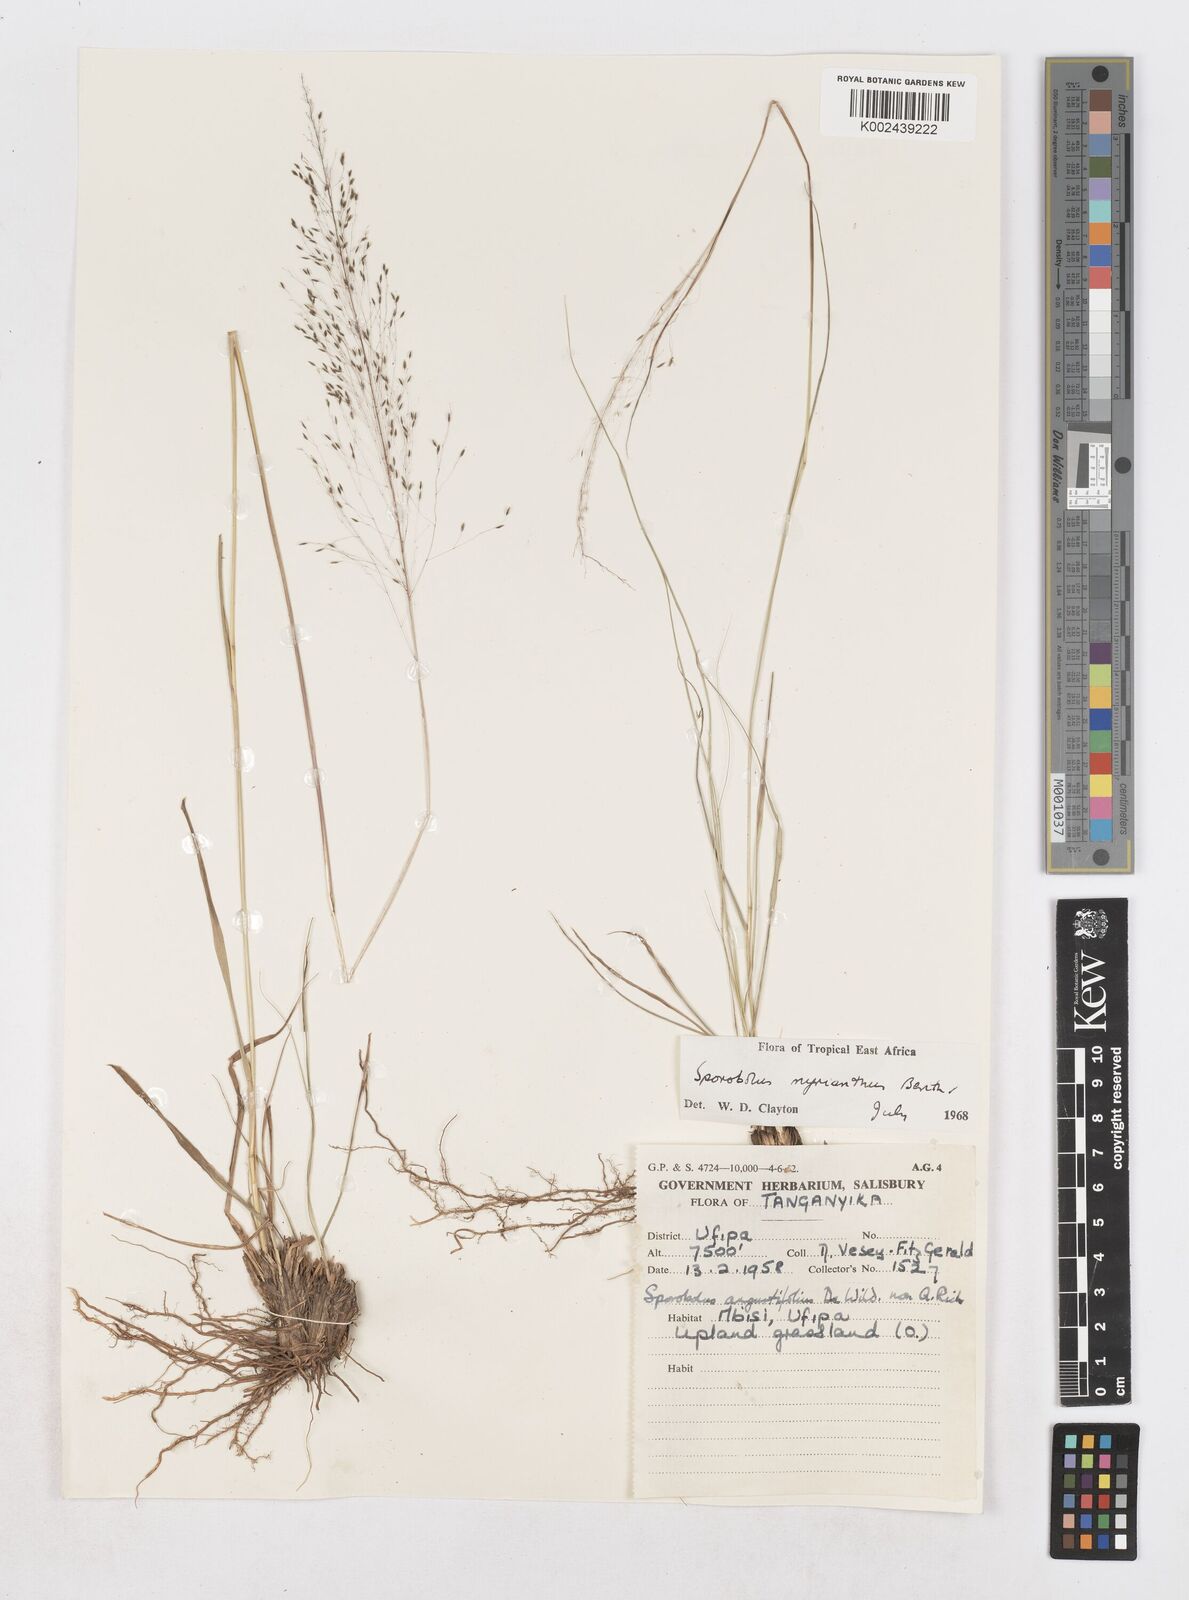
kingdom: Plantae
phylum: Tracheophyta
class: Liliopsida
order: Poales
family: Poaceae
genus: Sporobolus
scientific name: Sporobolus myrianthus
